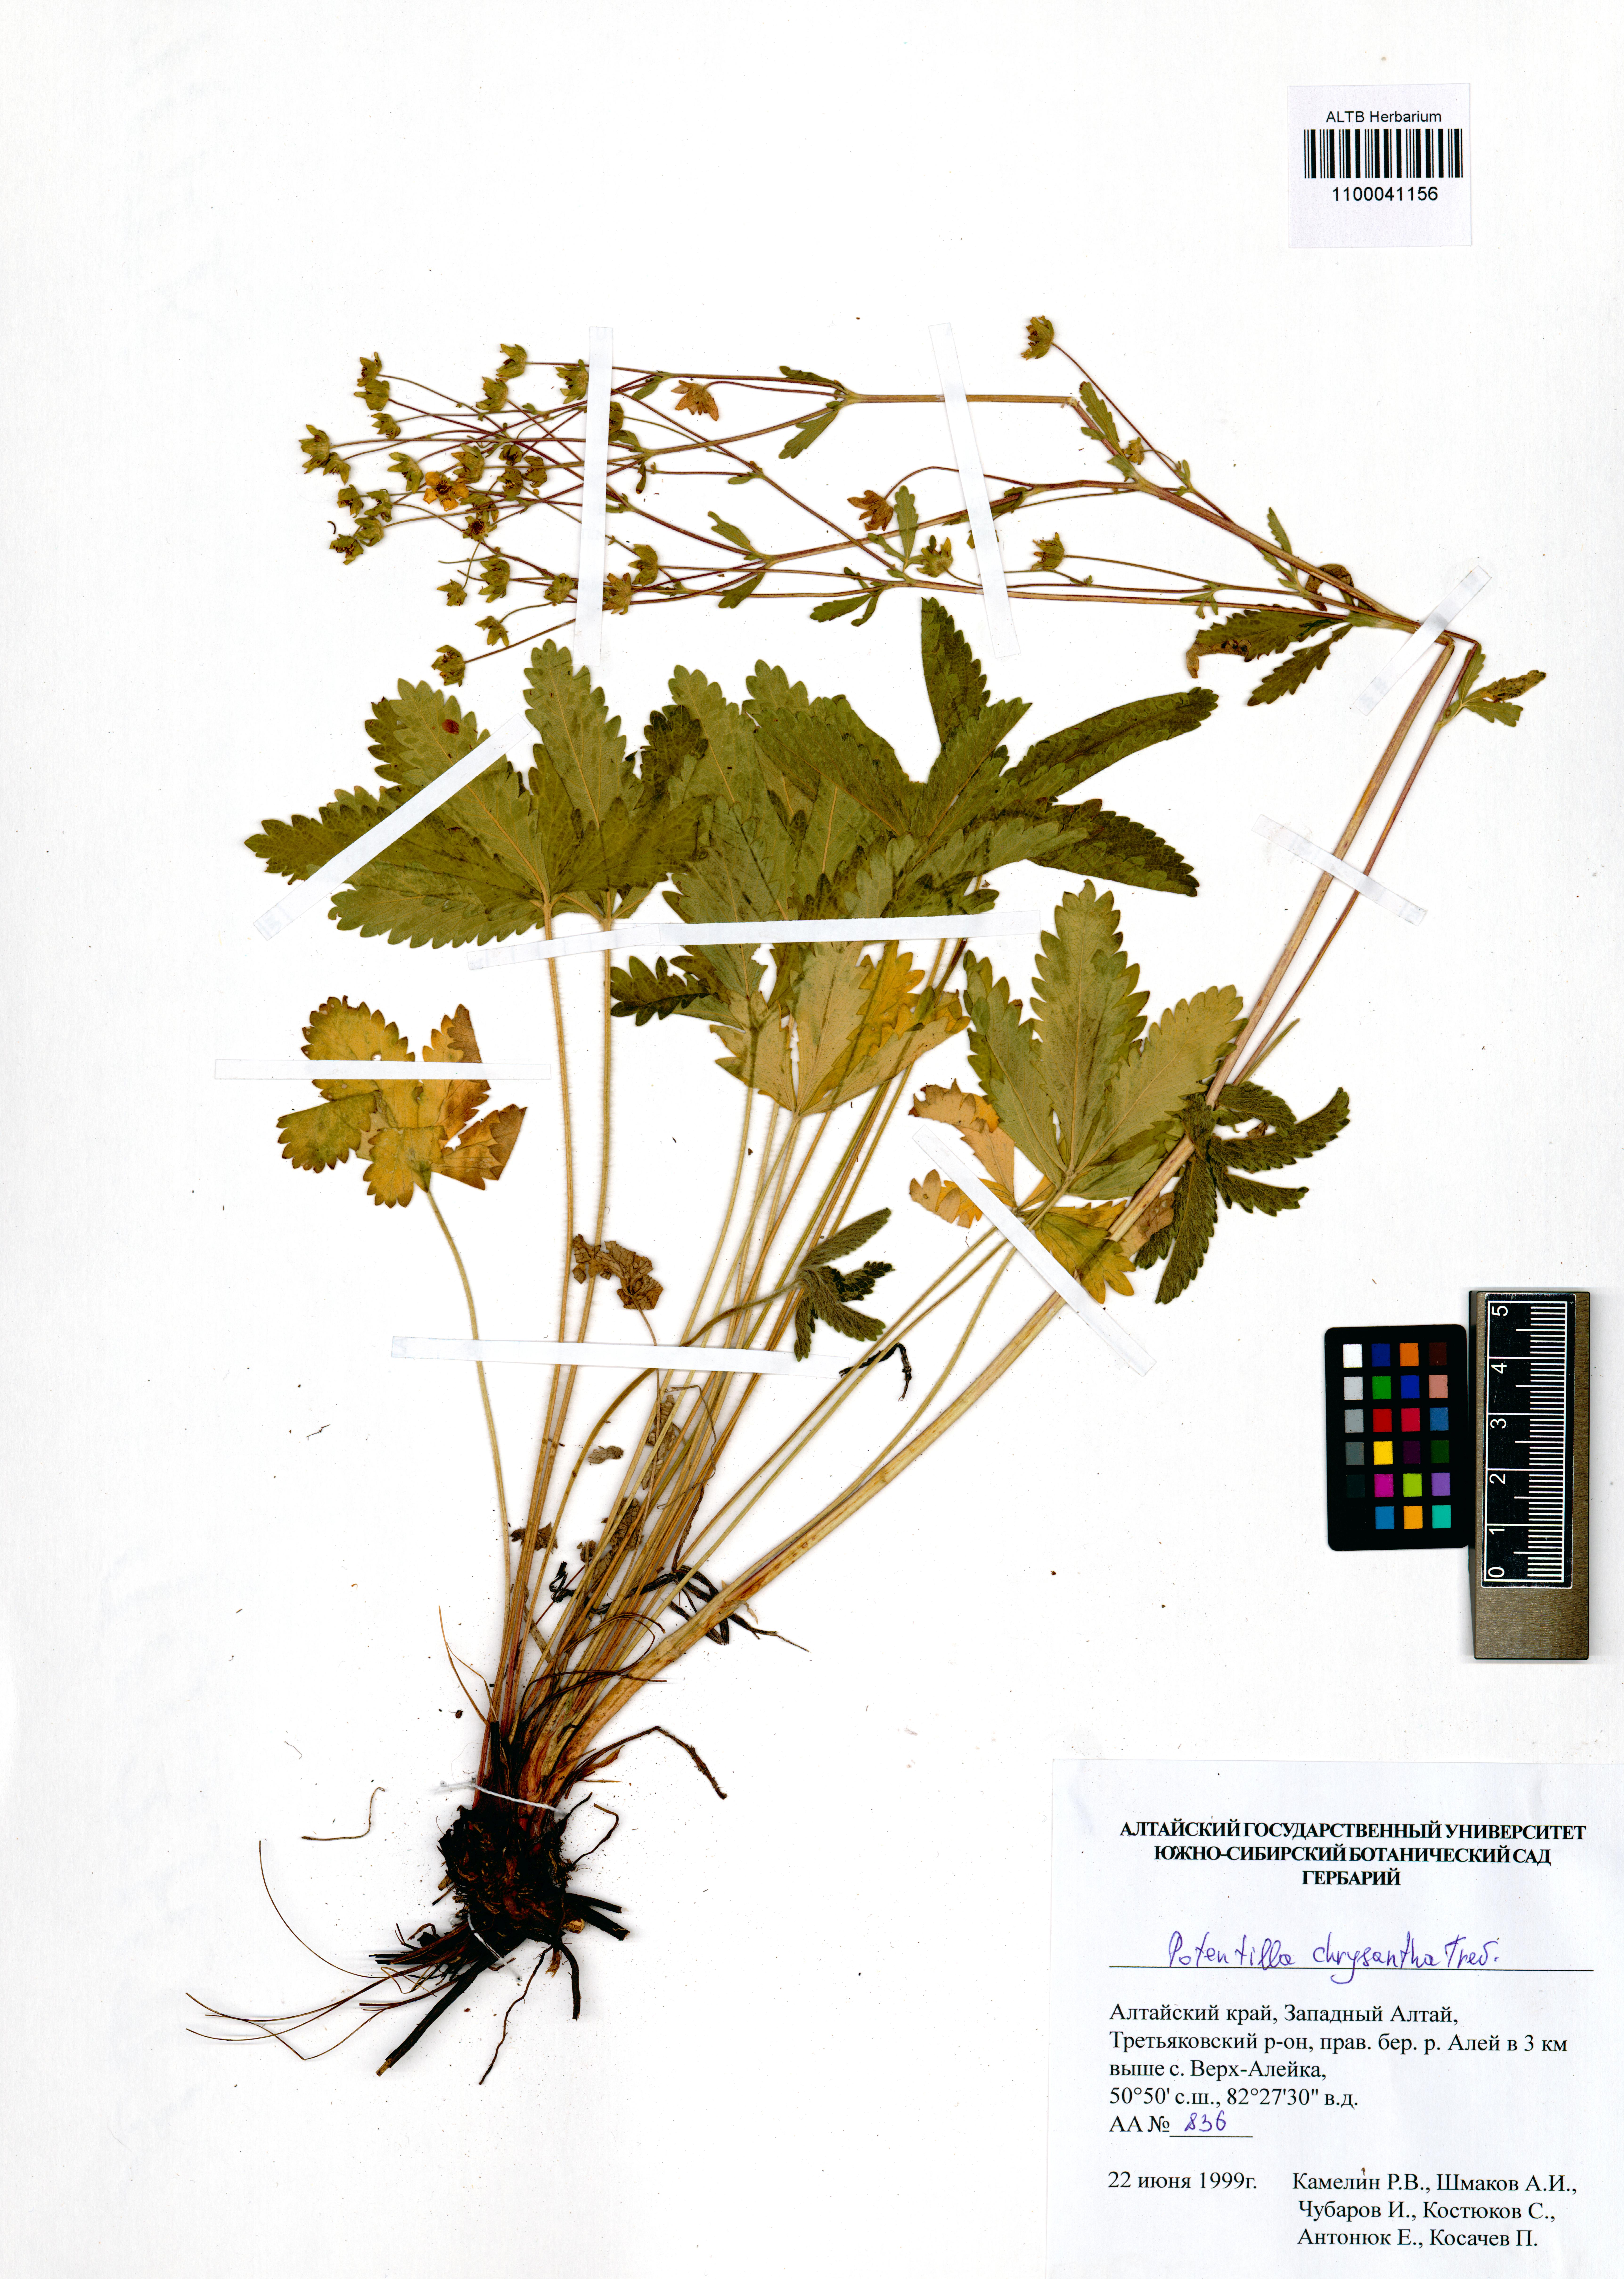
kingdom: Plantae
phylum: Tracheophyta
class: Magnoliopsida
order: Rosales
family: Rosaceae
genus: Potentilla
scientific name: Potentilla chrysantha
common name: Thuringian cinquefoil
